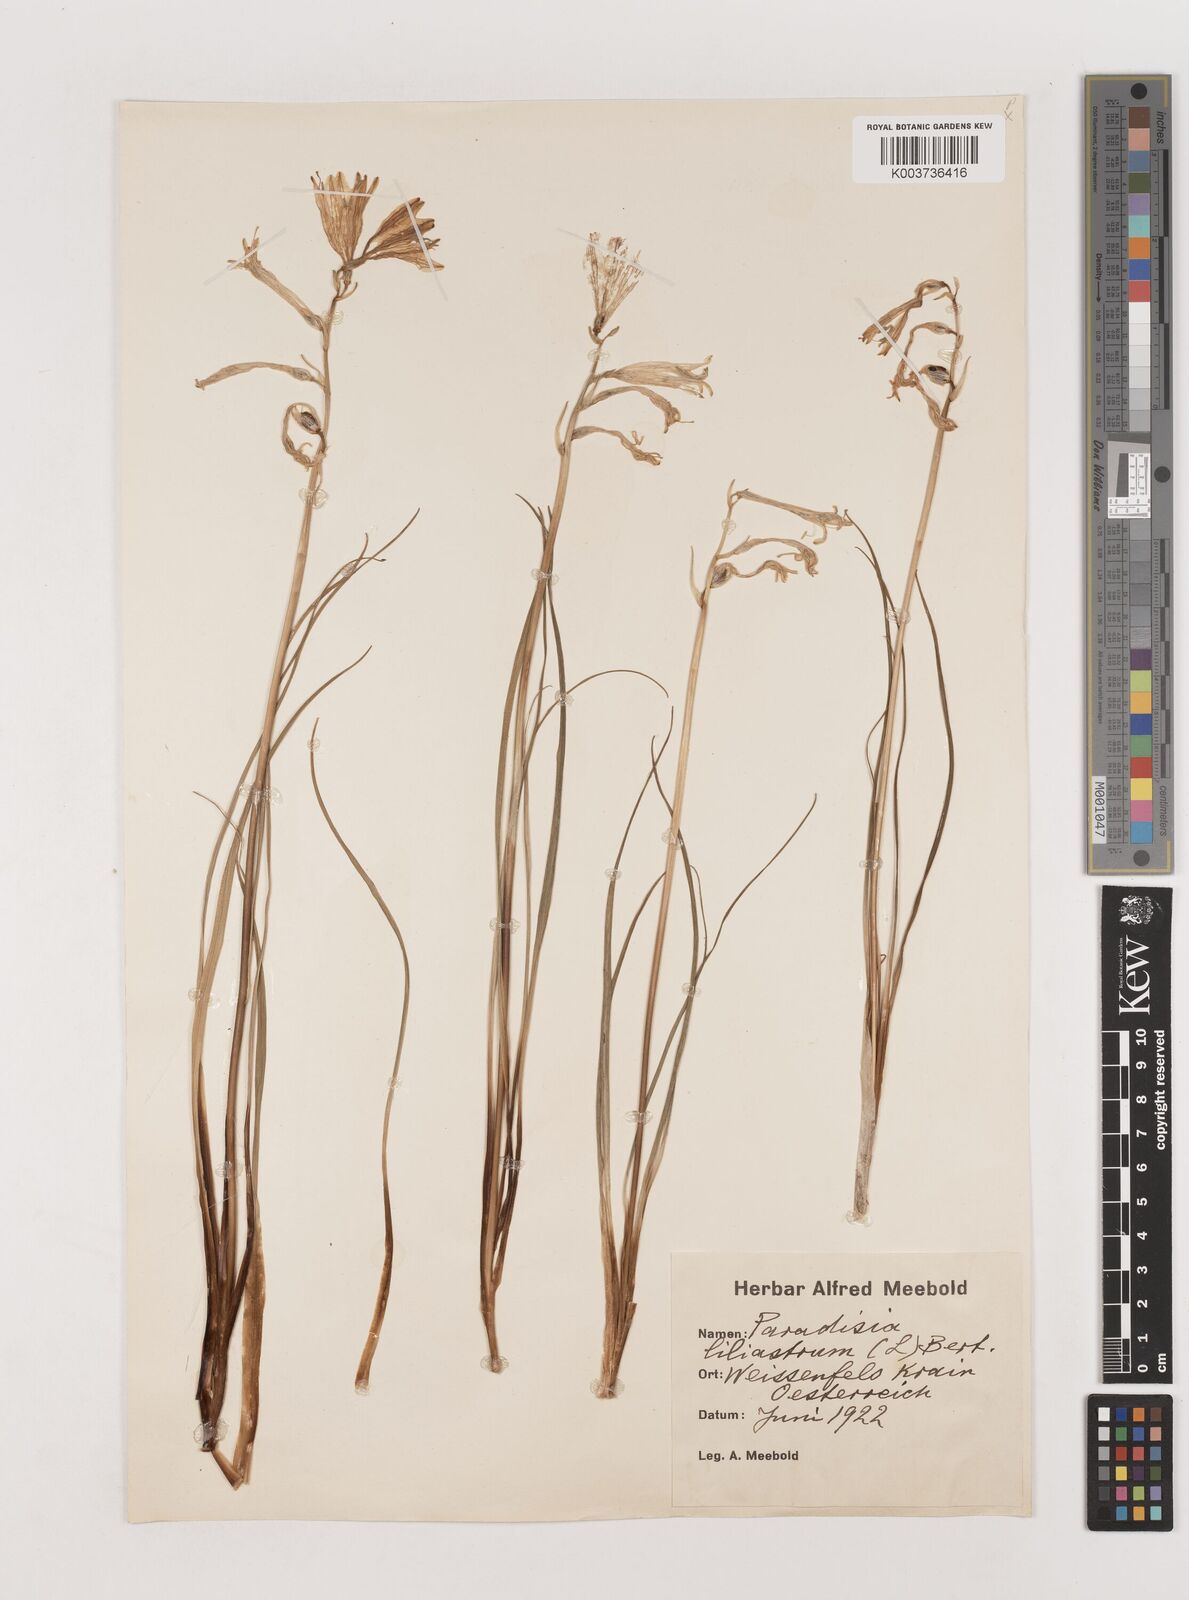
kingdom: Plantae
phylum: Tracheophyta
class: Liliopsida
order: Asparagales
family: Asparagaceae
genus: Paradisea
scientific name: Paradisea liliastrum
